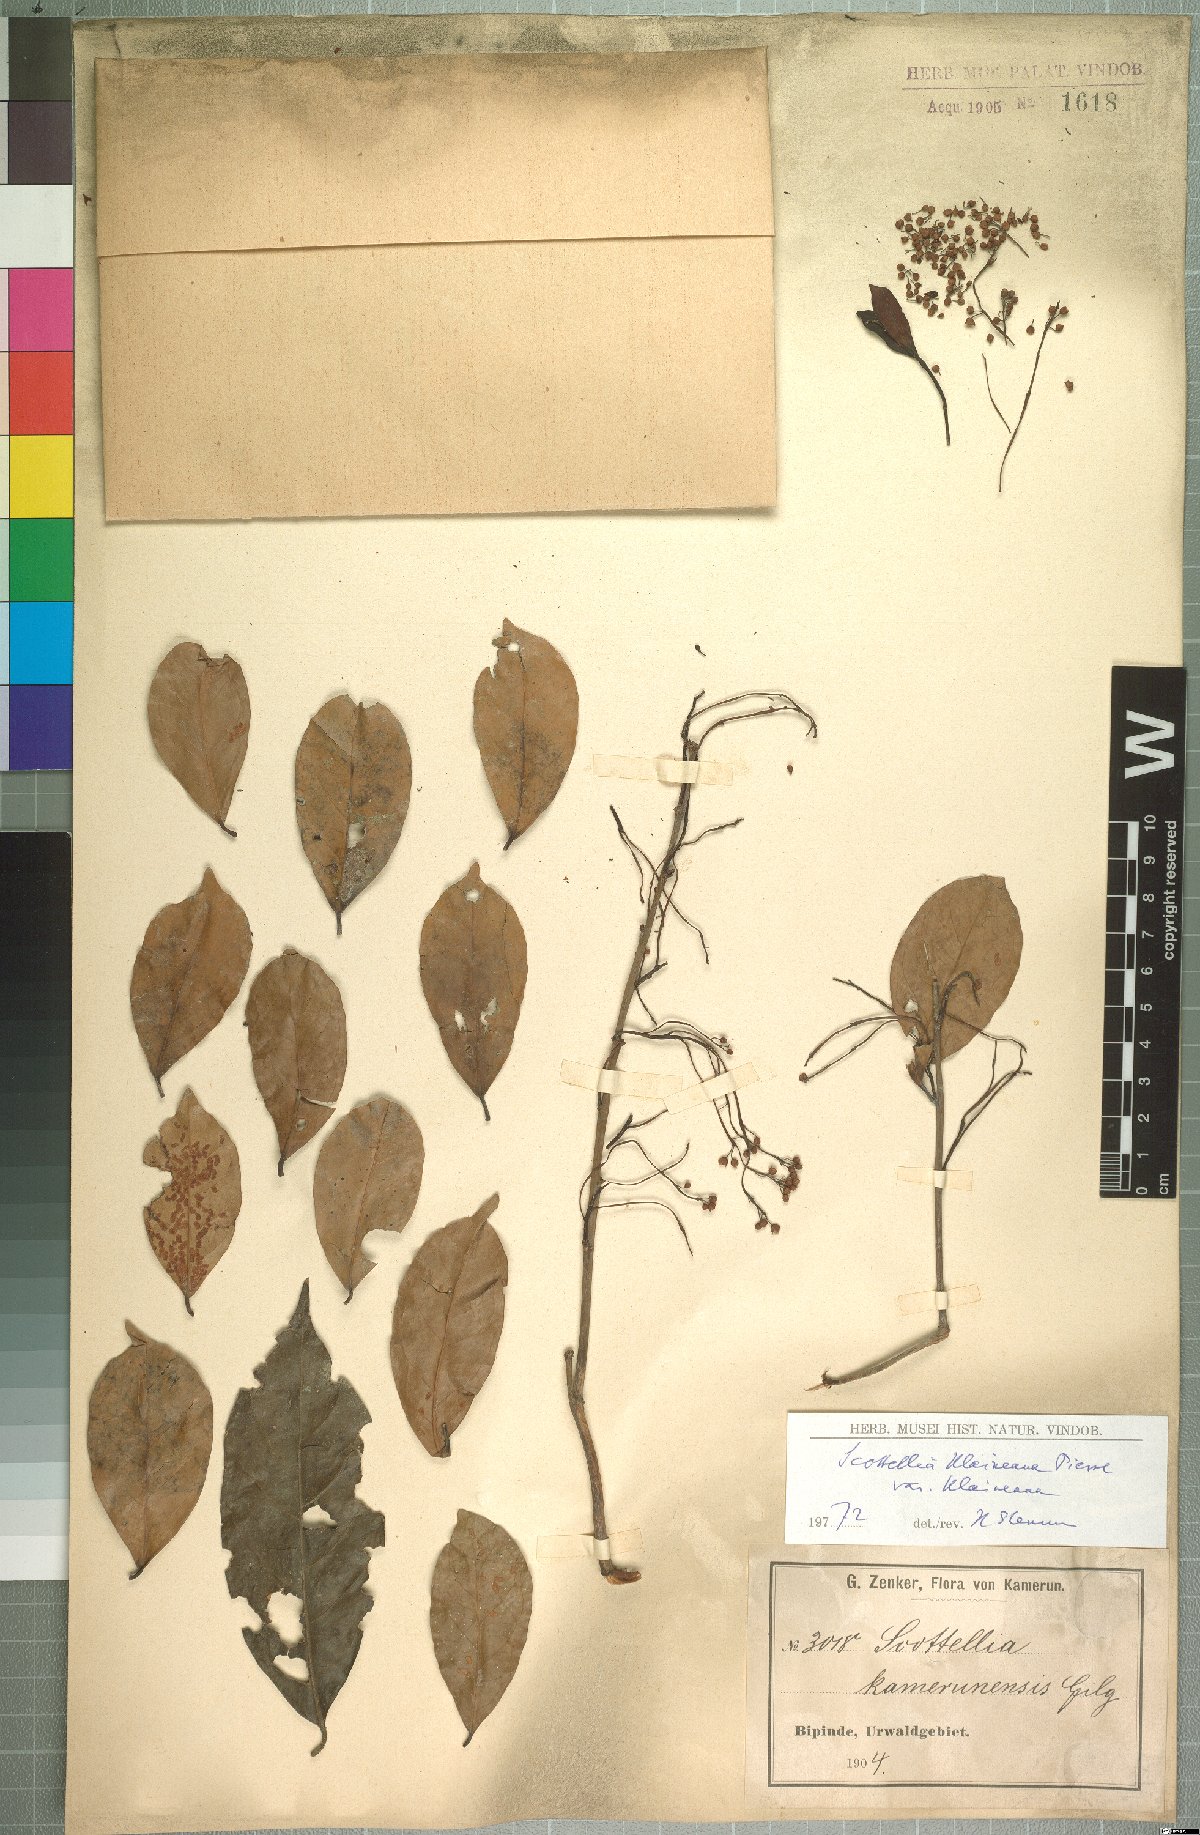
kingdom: Plantae
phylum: Tracheophyta
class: Magnoliopsida
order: Malpighiales
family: Achariaceae
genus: Scottellia
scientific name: Scottellia klaineana
